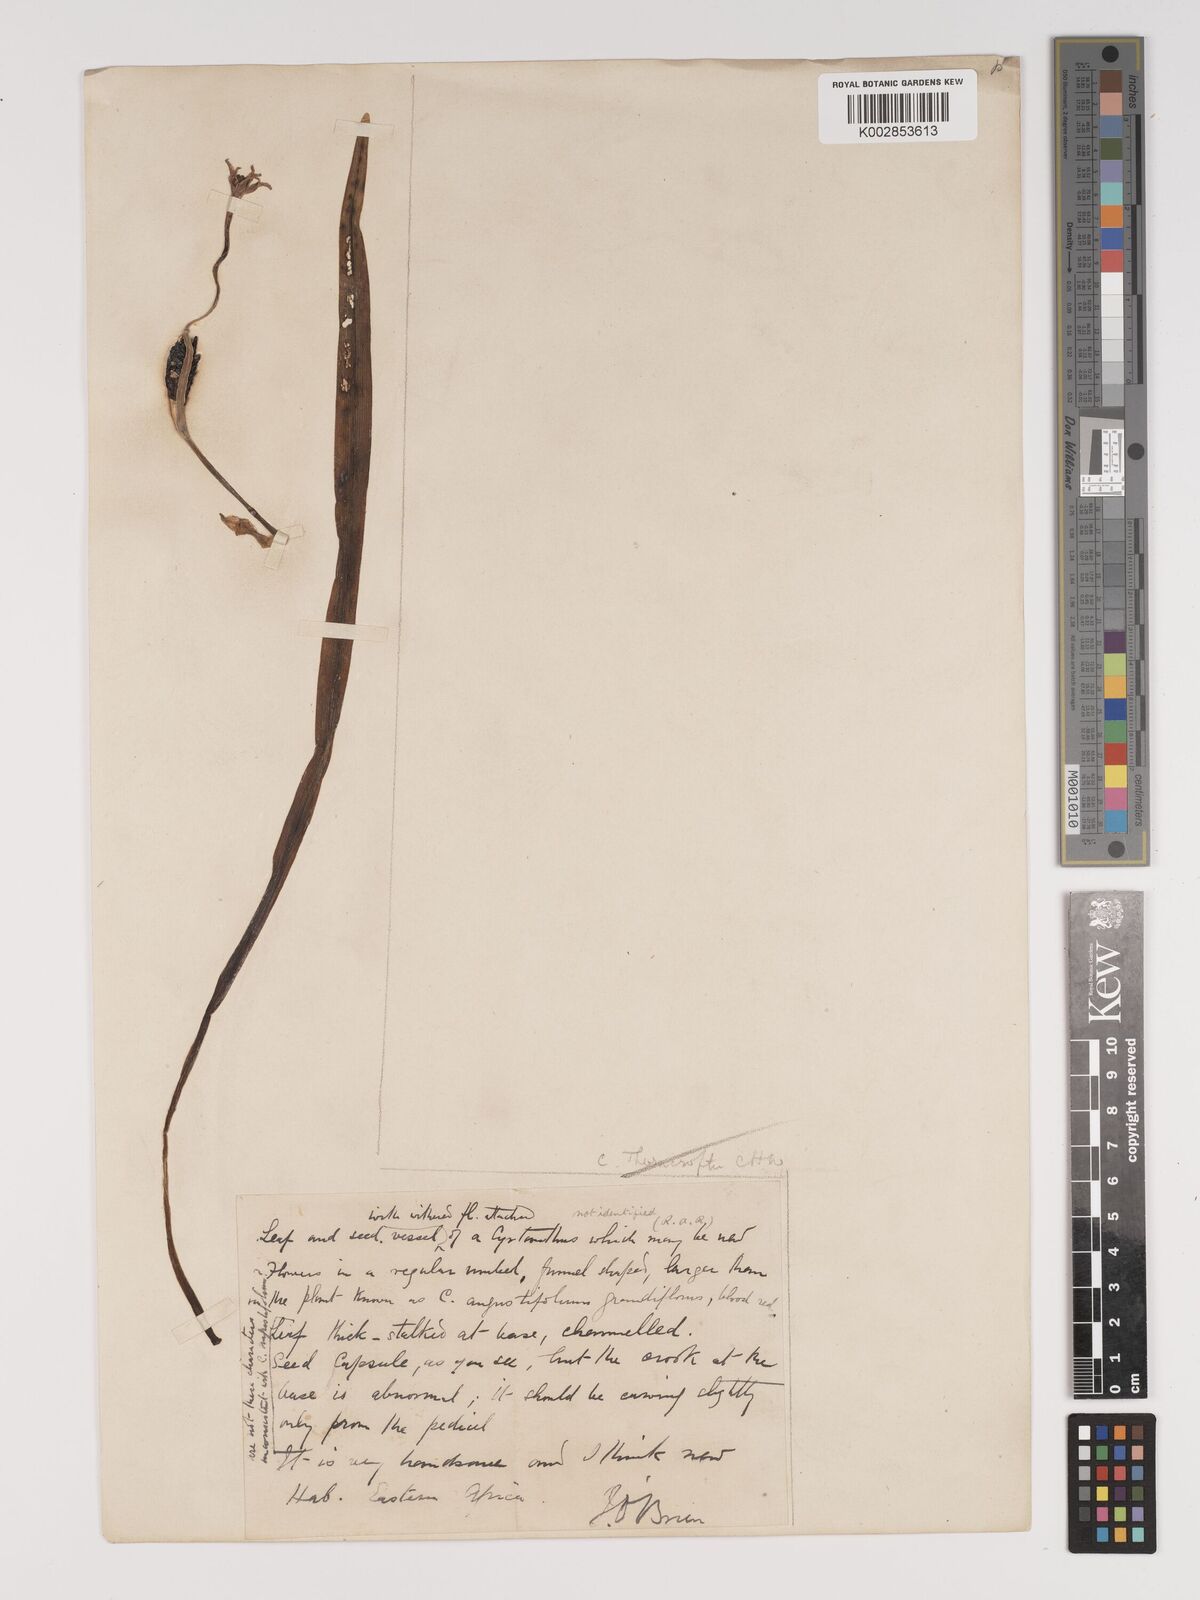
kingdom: Plantae
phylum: Tracheophyta
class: Liliopsida
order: Asparagales
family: Amaryllidaceae
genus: Cyrtanthus
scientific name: Cyrtanthus
